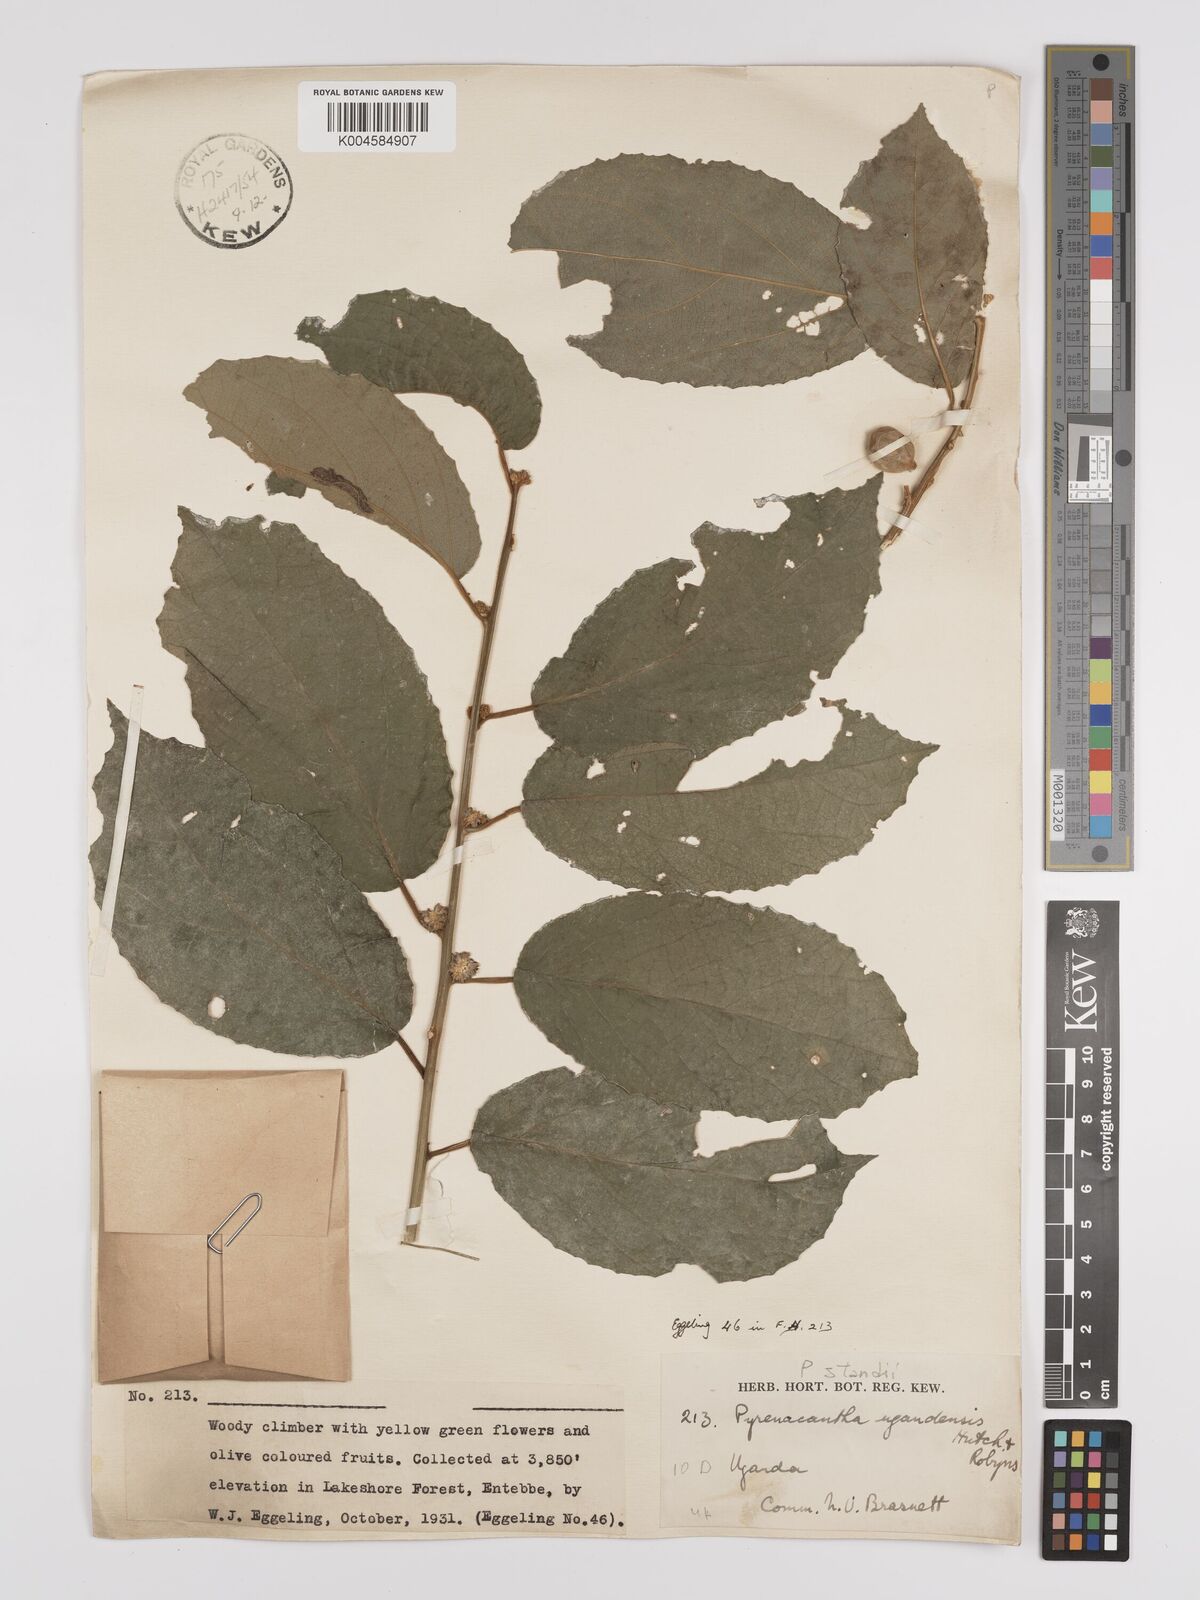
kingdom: Plantae
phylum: Tracheophyta
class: Magnoliopsida
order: Icacinales
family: Icacinaceae
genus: Pyrenacantha
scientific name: Pyrenacantha staudtii
